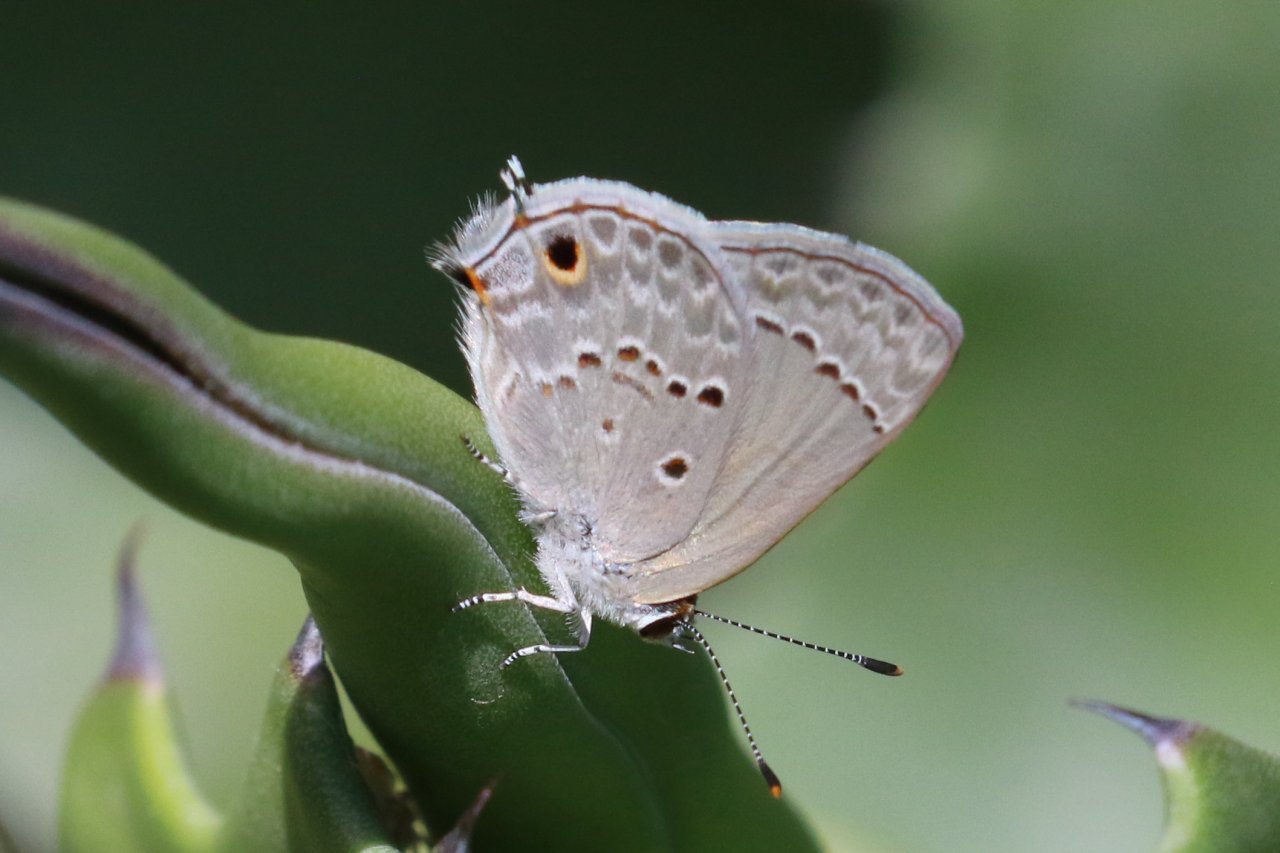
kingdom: Animalia
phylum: Arthropoda
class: Insecta
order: Lepidoptera
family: Lycaenidae
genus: Callicista
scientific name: Callicista columella
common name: Mallow Scrub-Hairstreak
